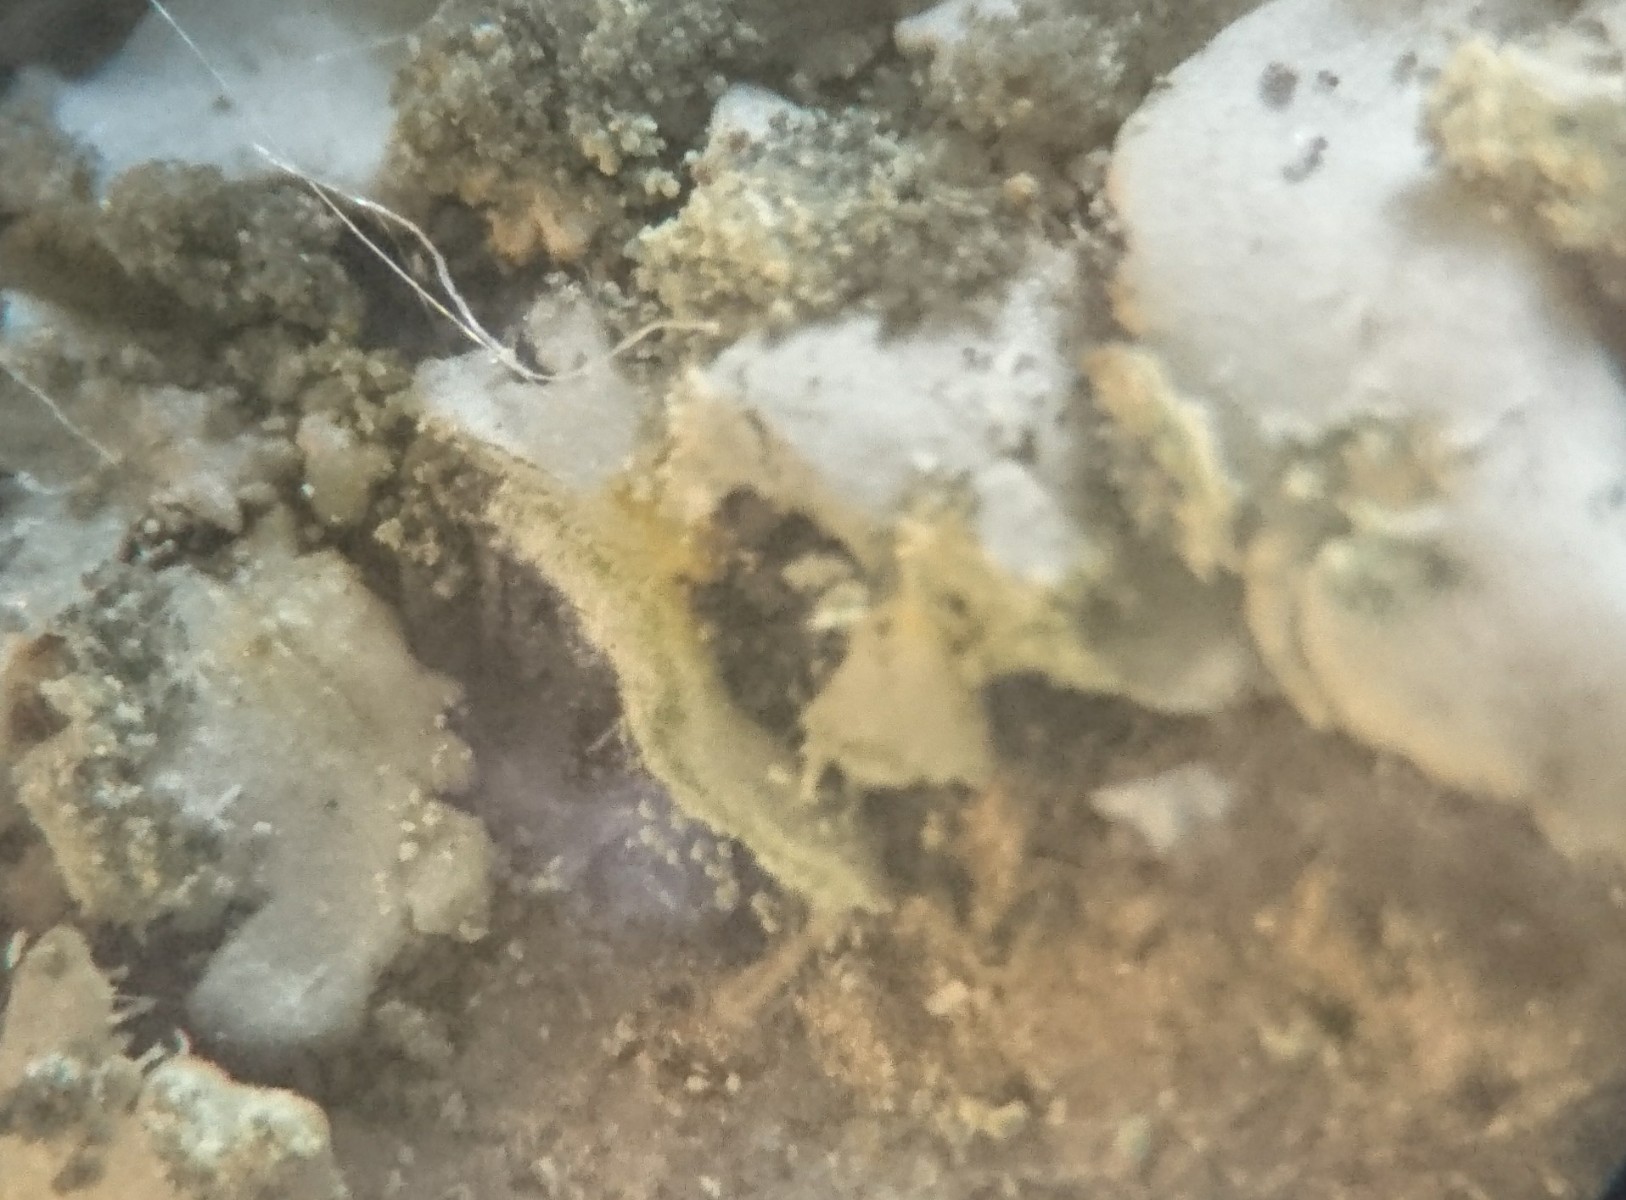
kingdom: Fungi
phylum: Ascomycota
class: Lecanoromycetes
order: Caliciales
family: Physciaceae
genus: Phaeophyscia
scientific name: Phaeophyscia orbicularis
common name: grågrøn rosetlav
